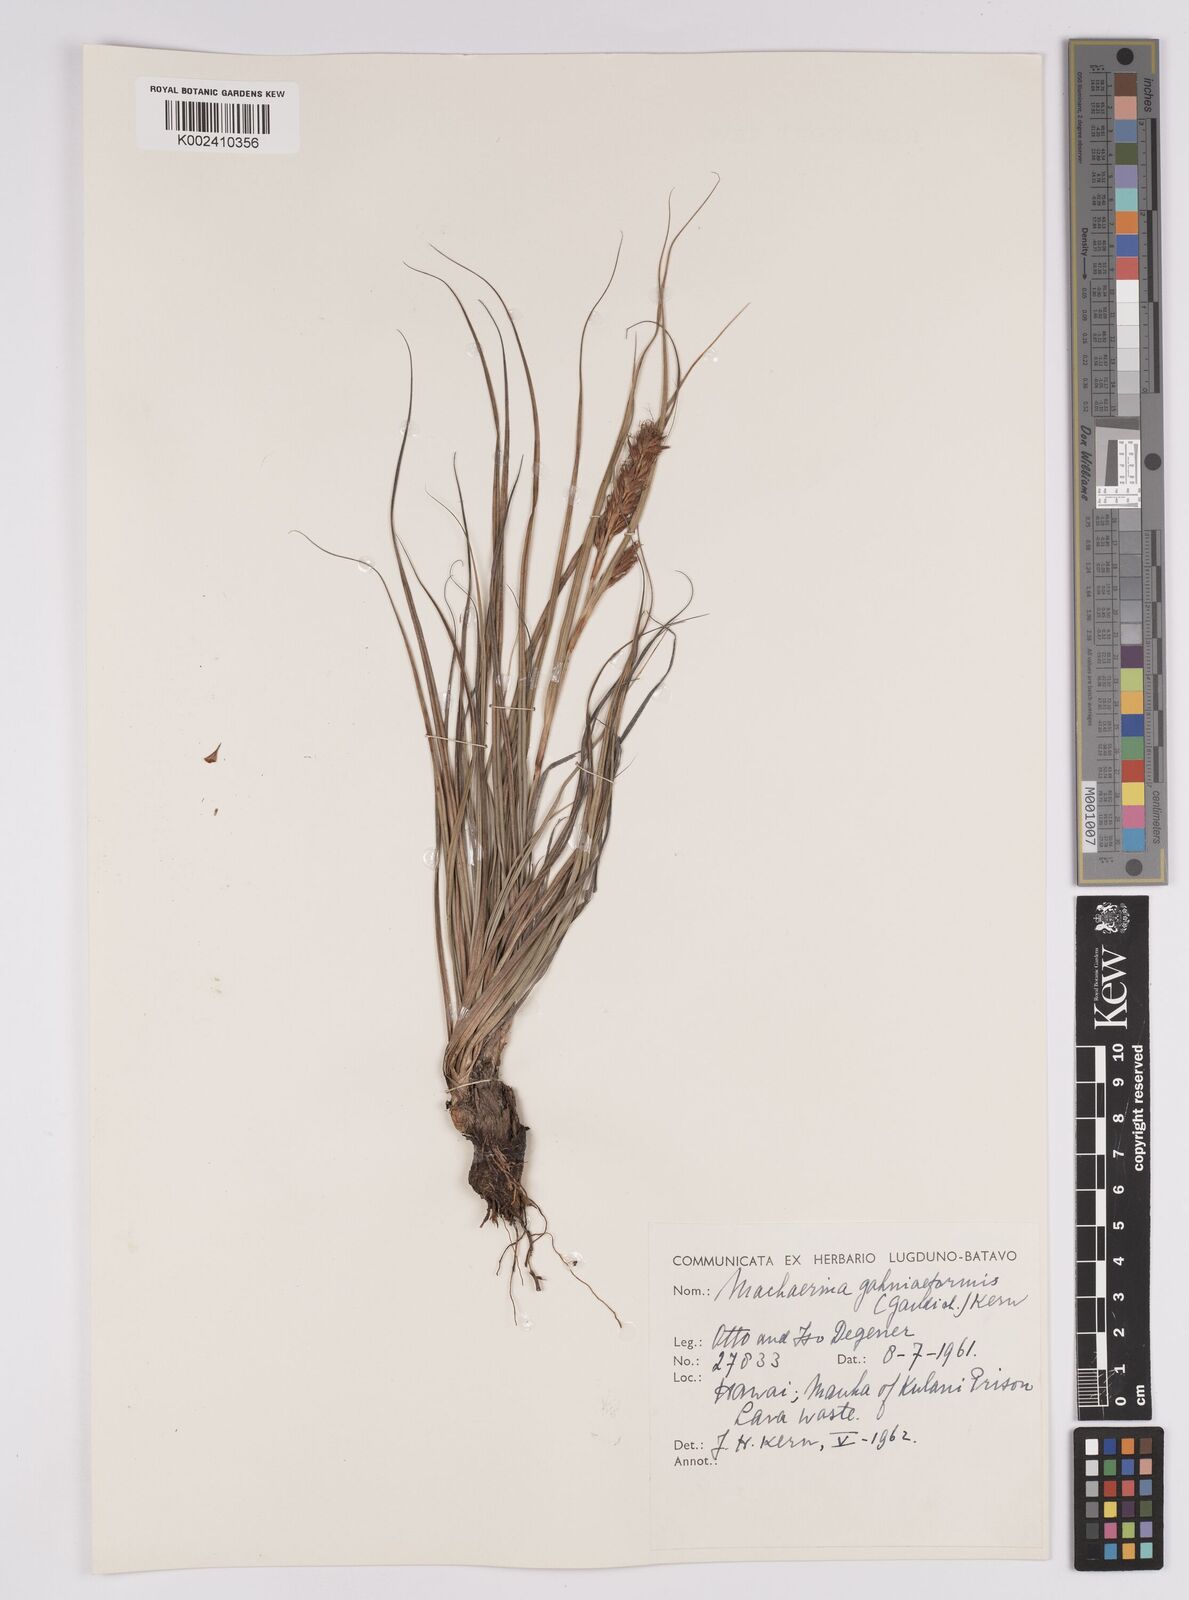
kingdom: Plantae
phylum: Tracheophyta
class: Liliopsida
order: Poales
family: Cyperaceae
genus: Morelotia
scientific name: Morelotia gahniiformis
